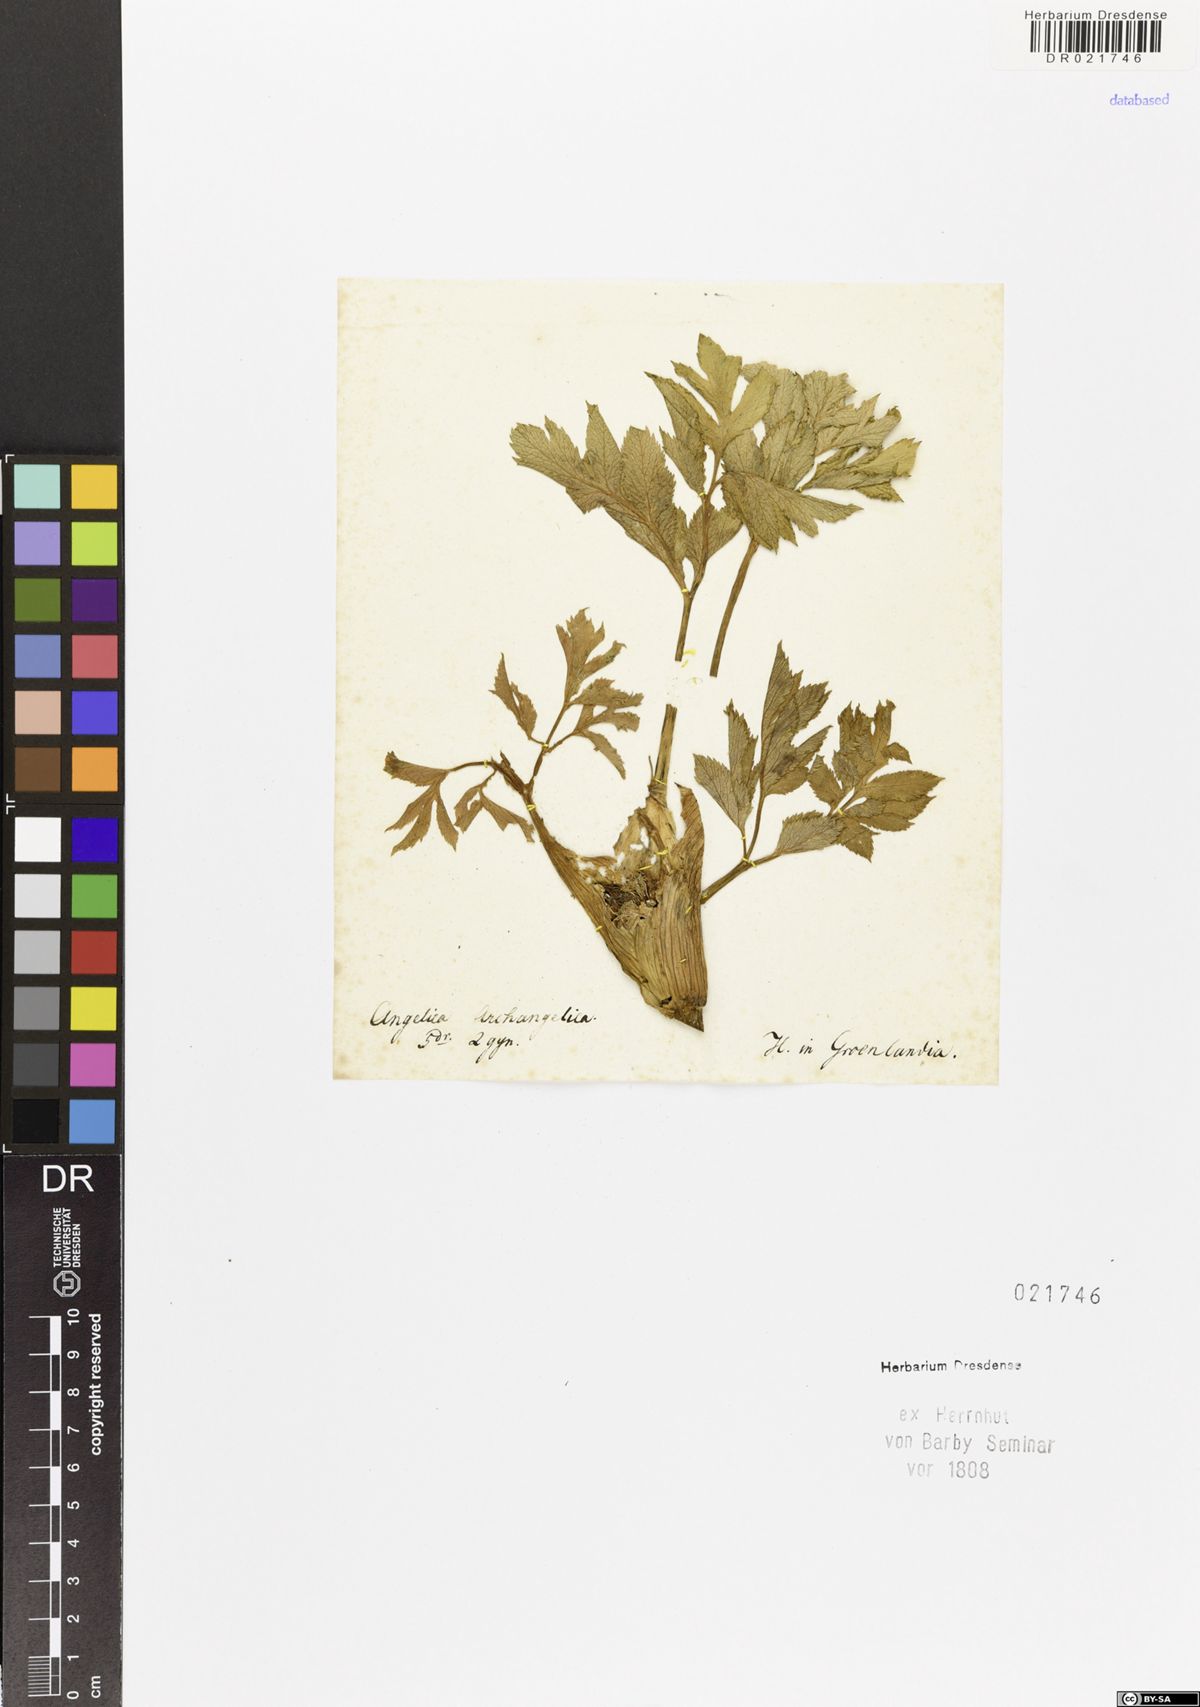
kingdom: Plantae
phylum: Tracheophyta
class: Magnoliopsida
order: Apiales
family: Apiaceae
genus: Angelica
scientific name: Angelica archangelica
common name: Garden angelica
